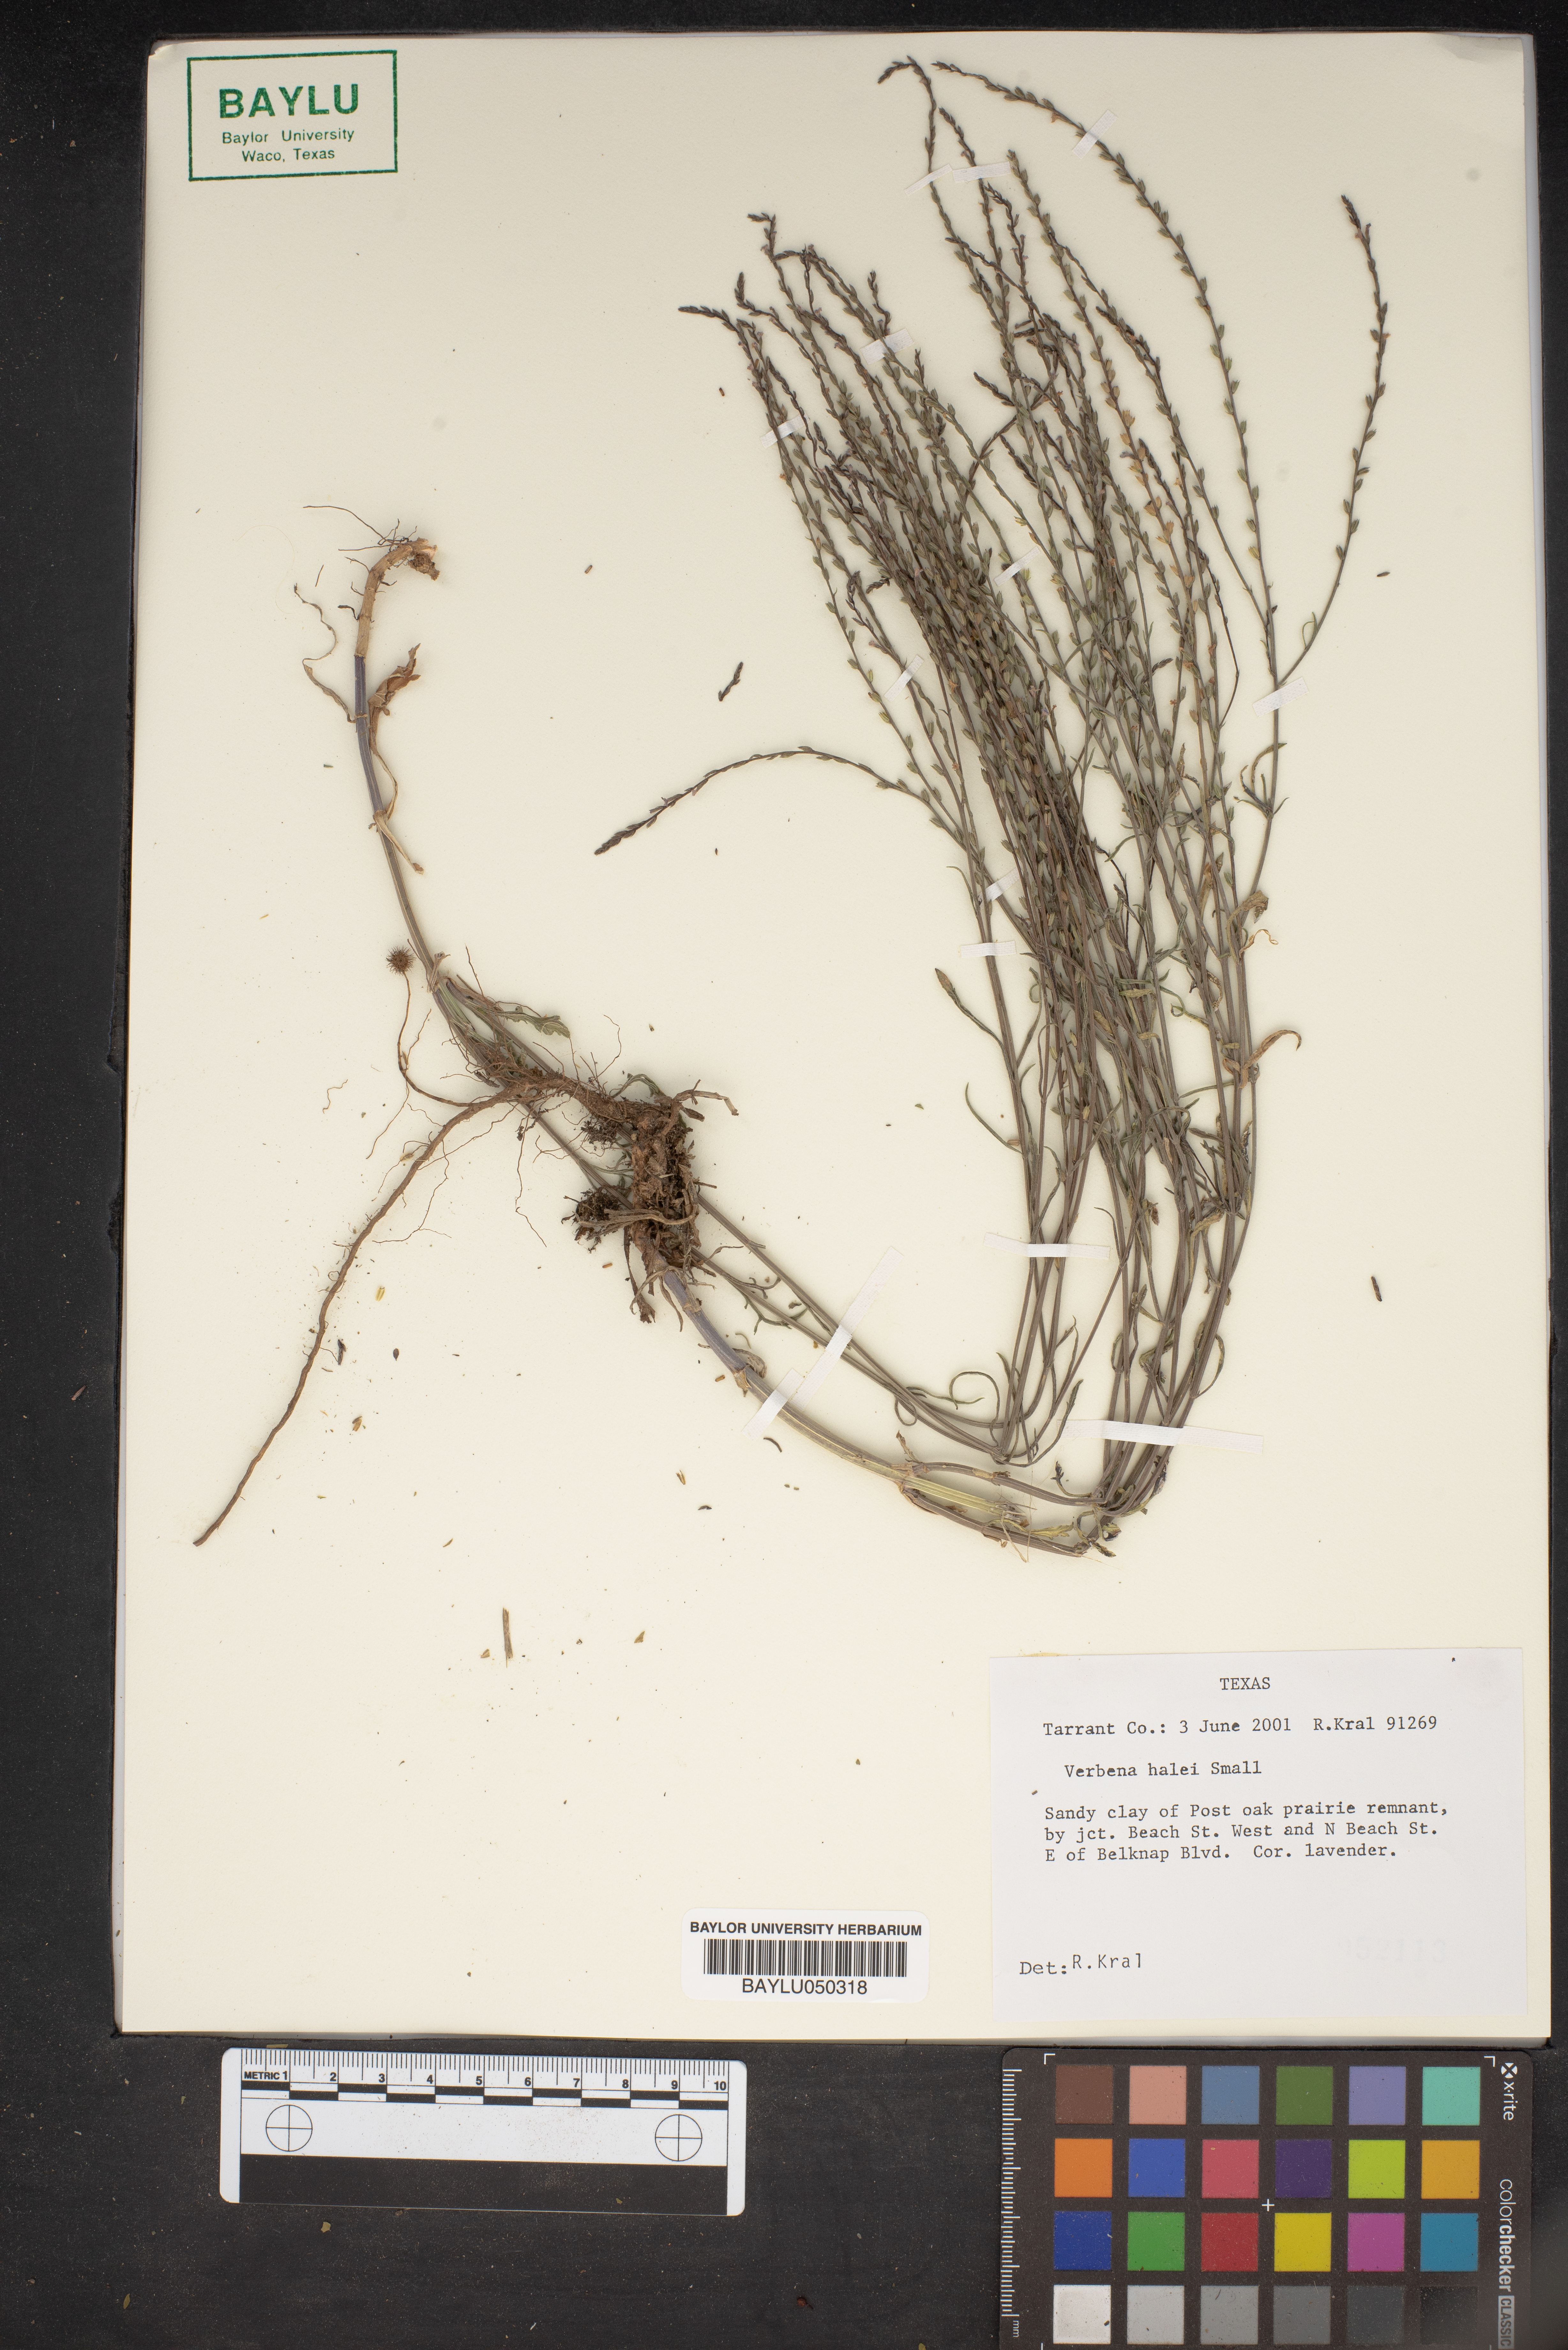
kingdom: Plantae
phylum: Tracheophyta
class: Magnoliopsida
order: Lamiales
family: Verbenaceae
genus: Verbena
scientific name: Verbena halei
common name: Texas vervain
